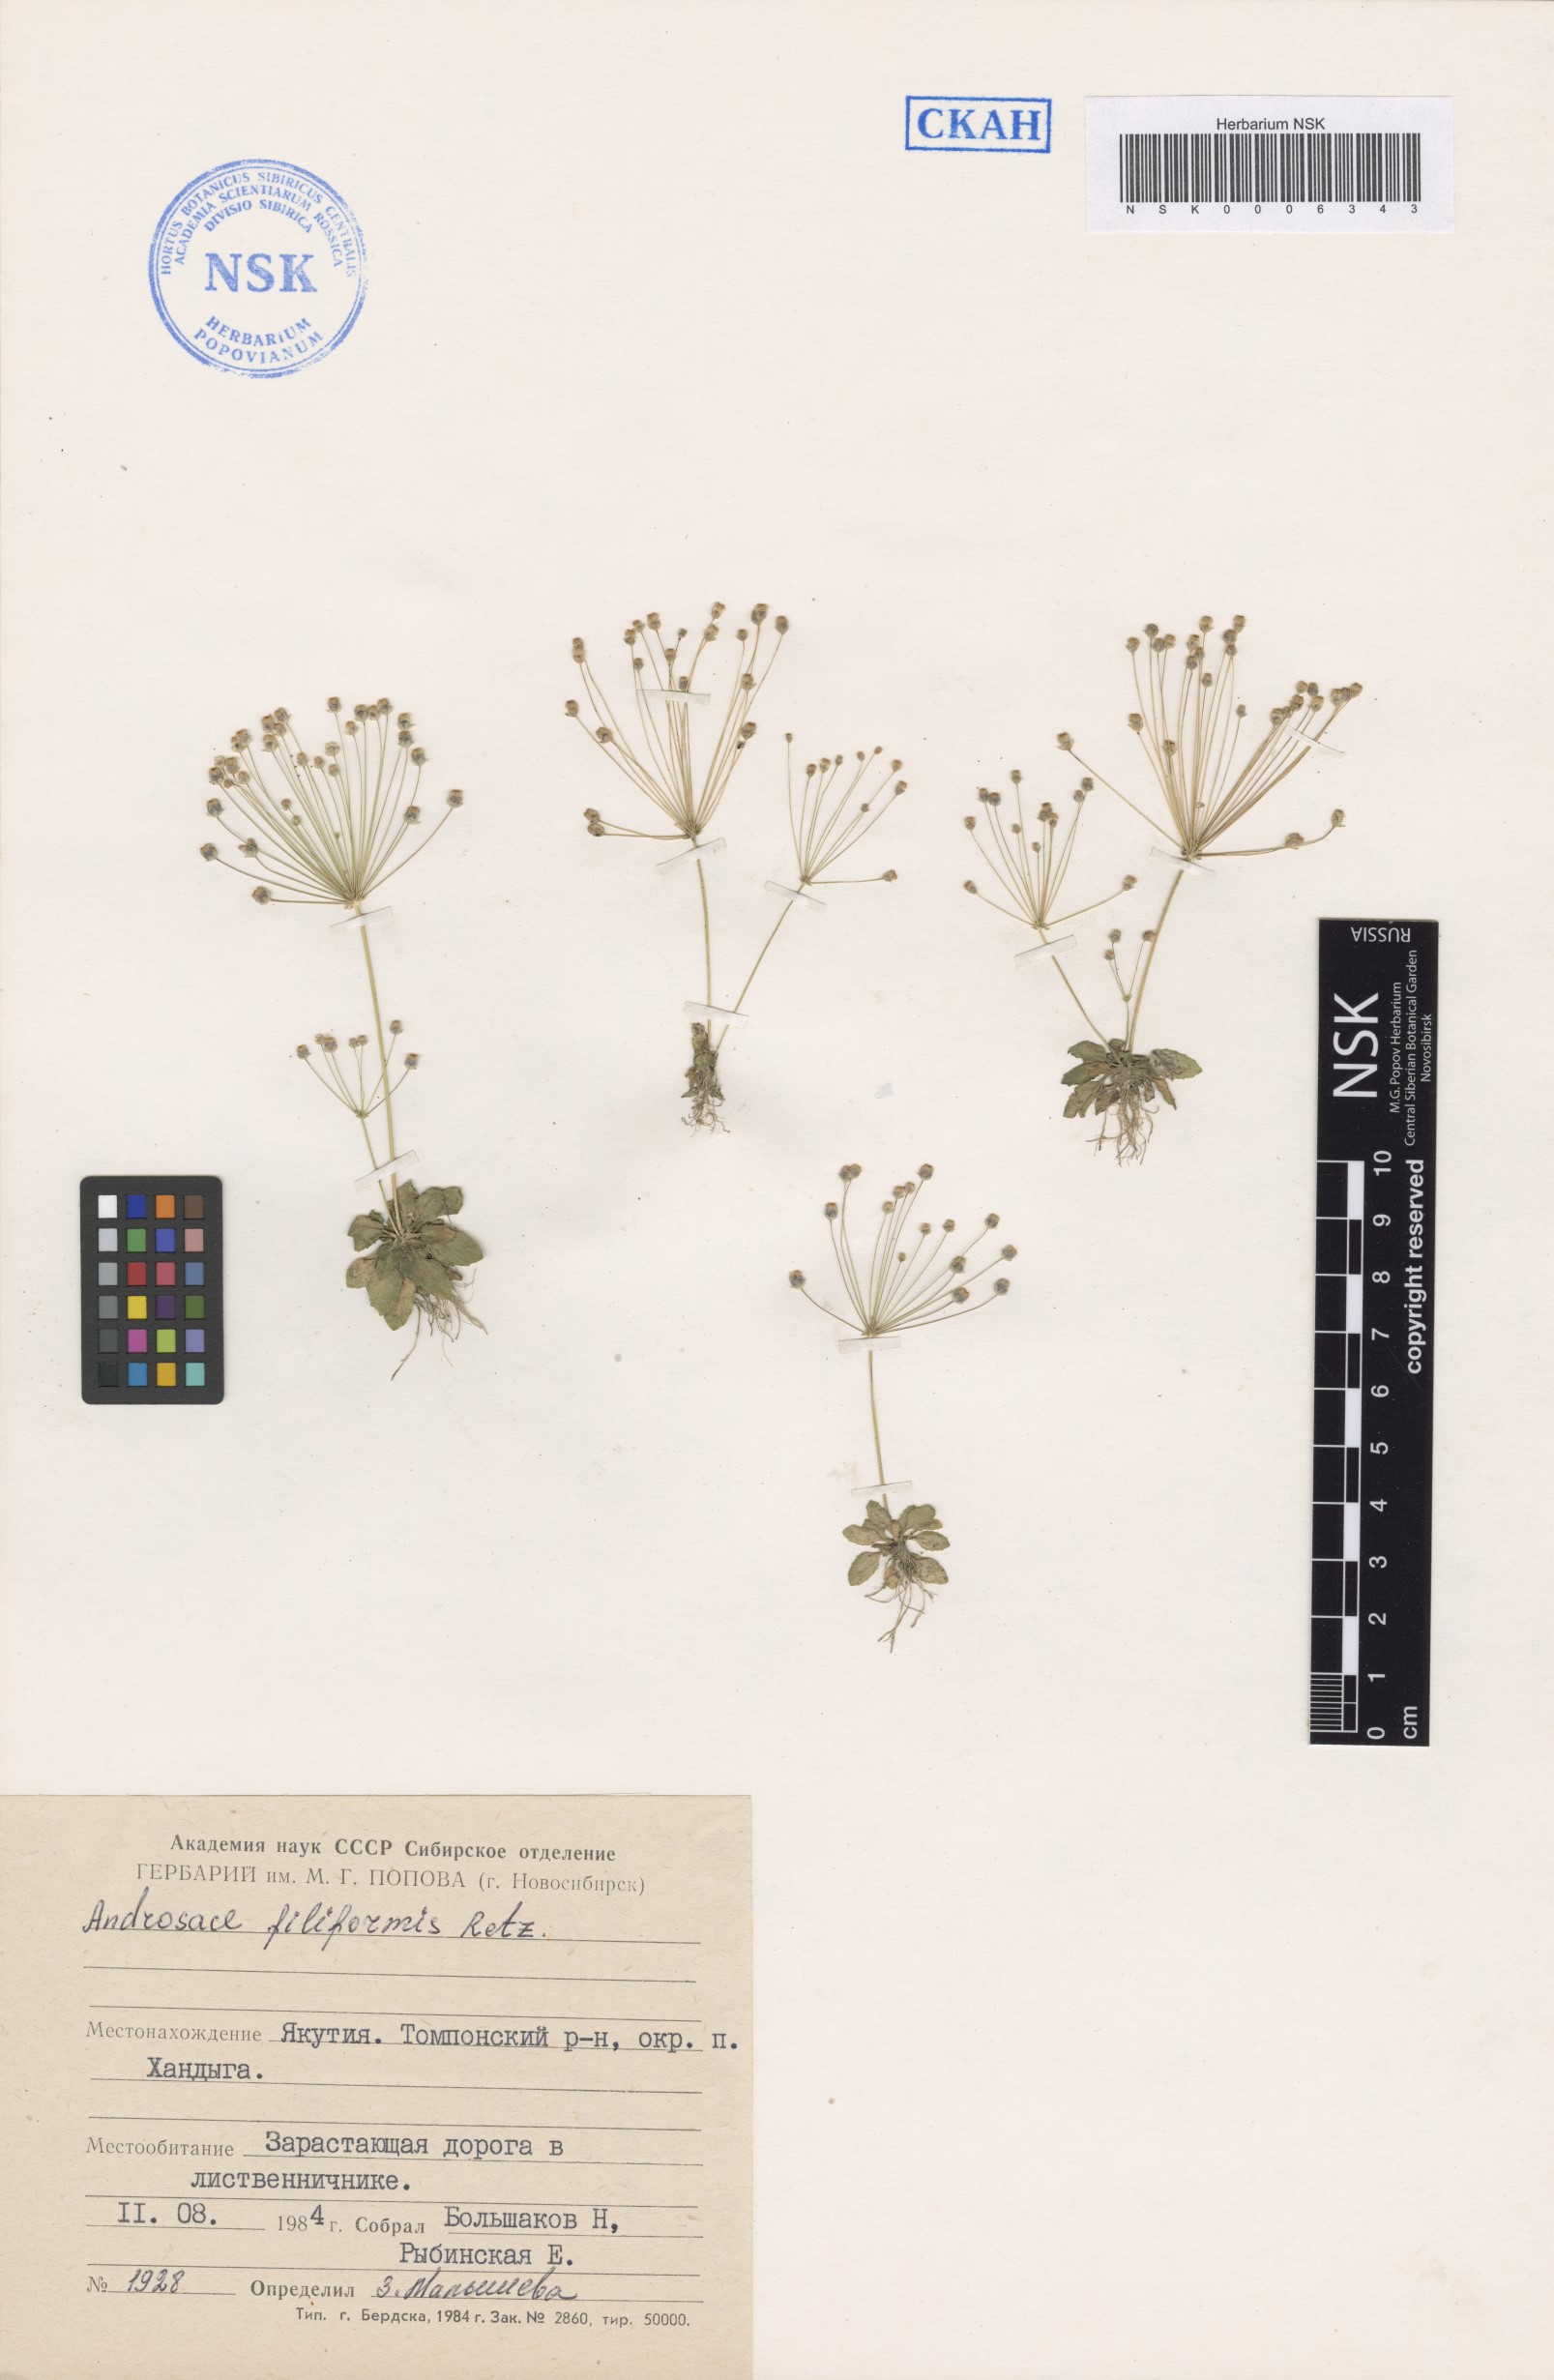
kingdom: Plantae
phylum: Tracheophyta
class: Magnoliopsida
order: Ericales
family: Primulaceae
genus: Androsace
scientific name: Androsace filiformis
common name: Filiform rock jasmine
